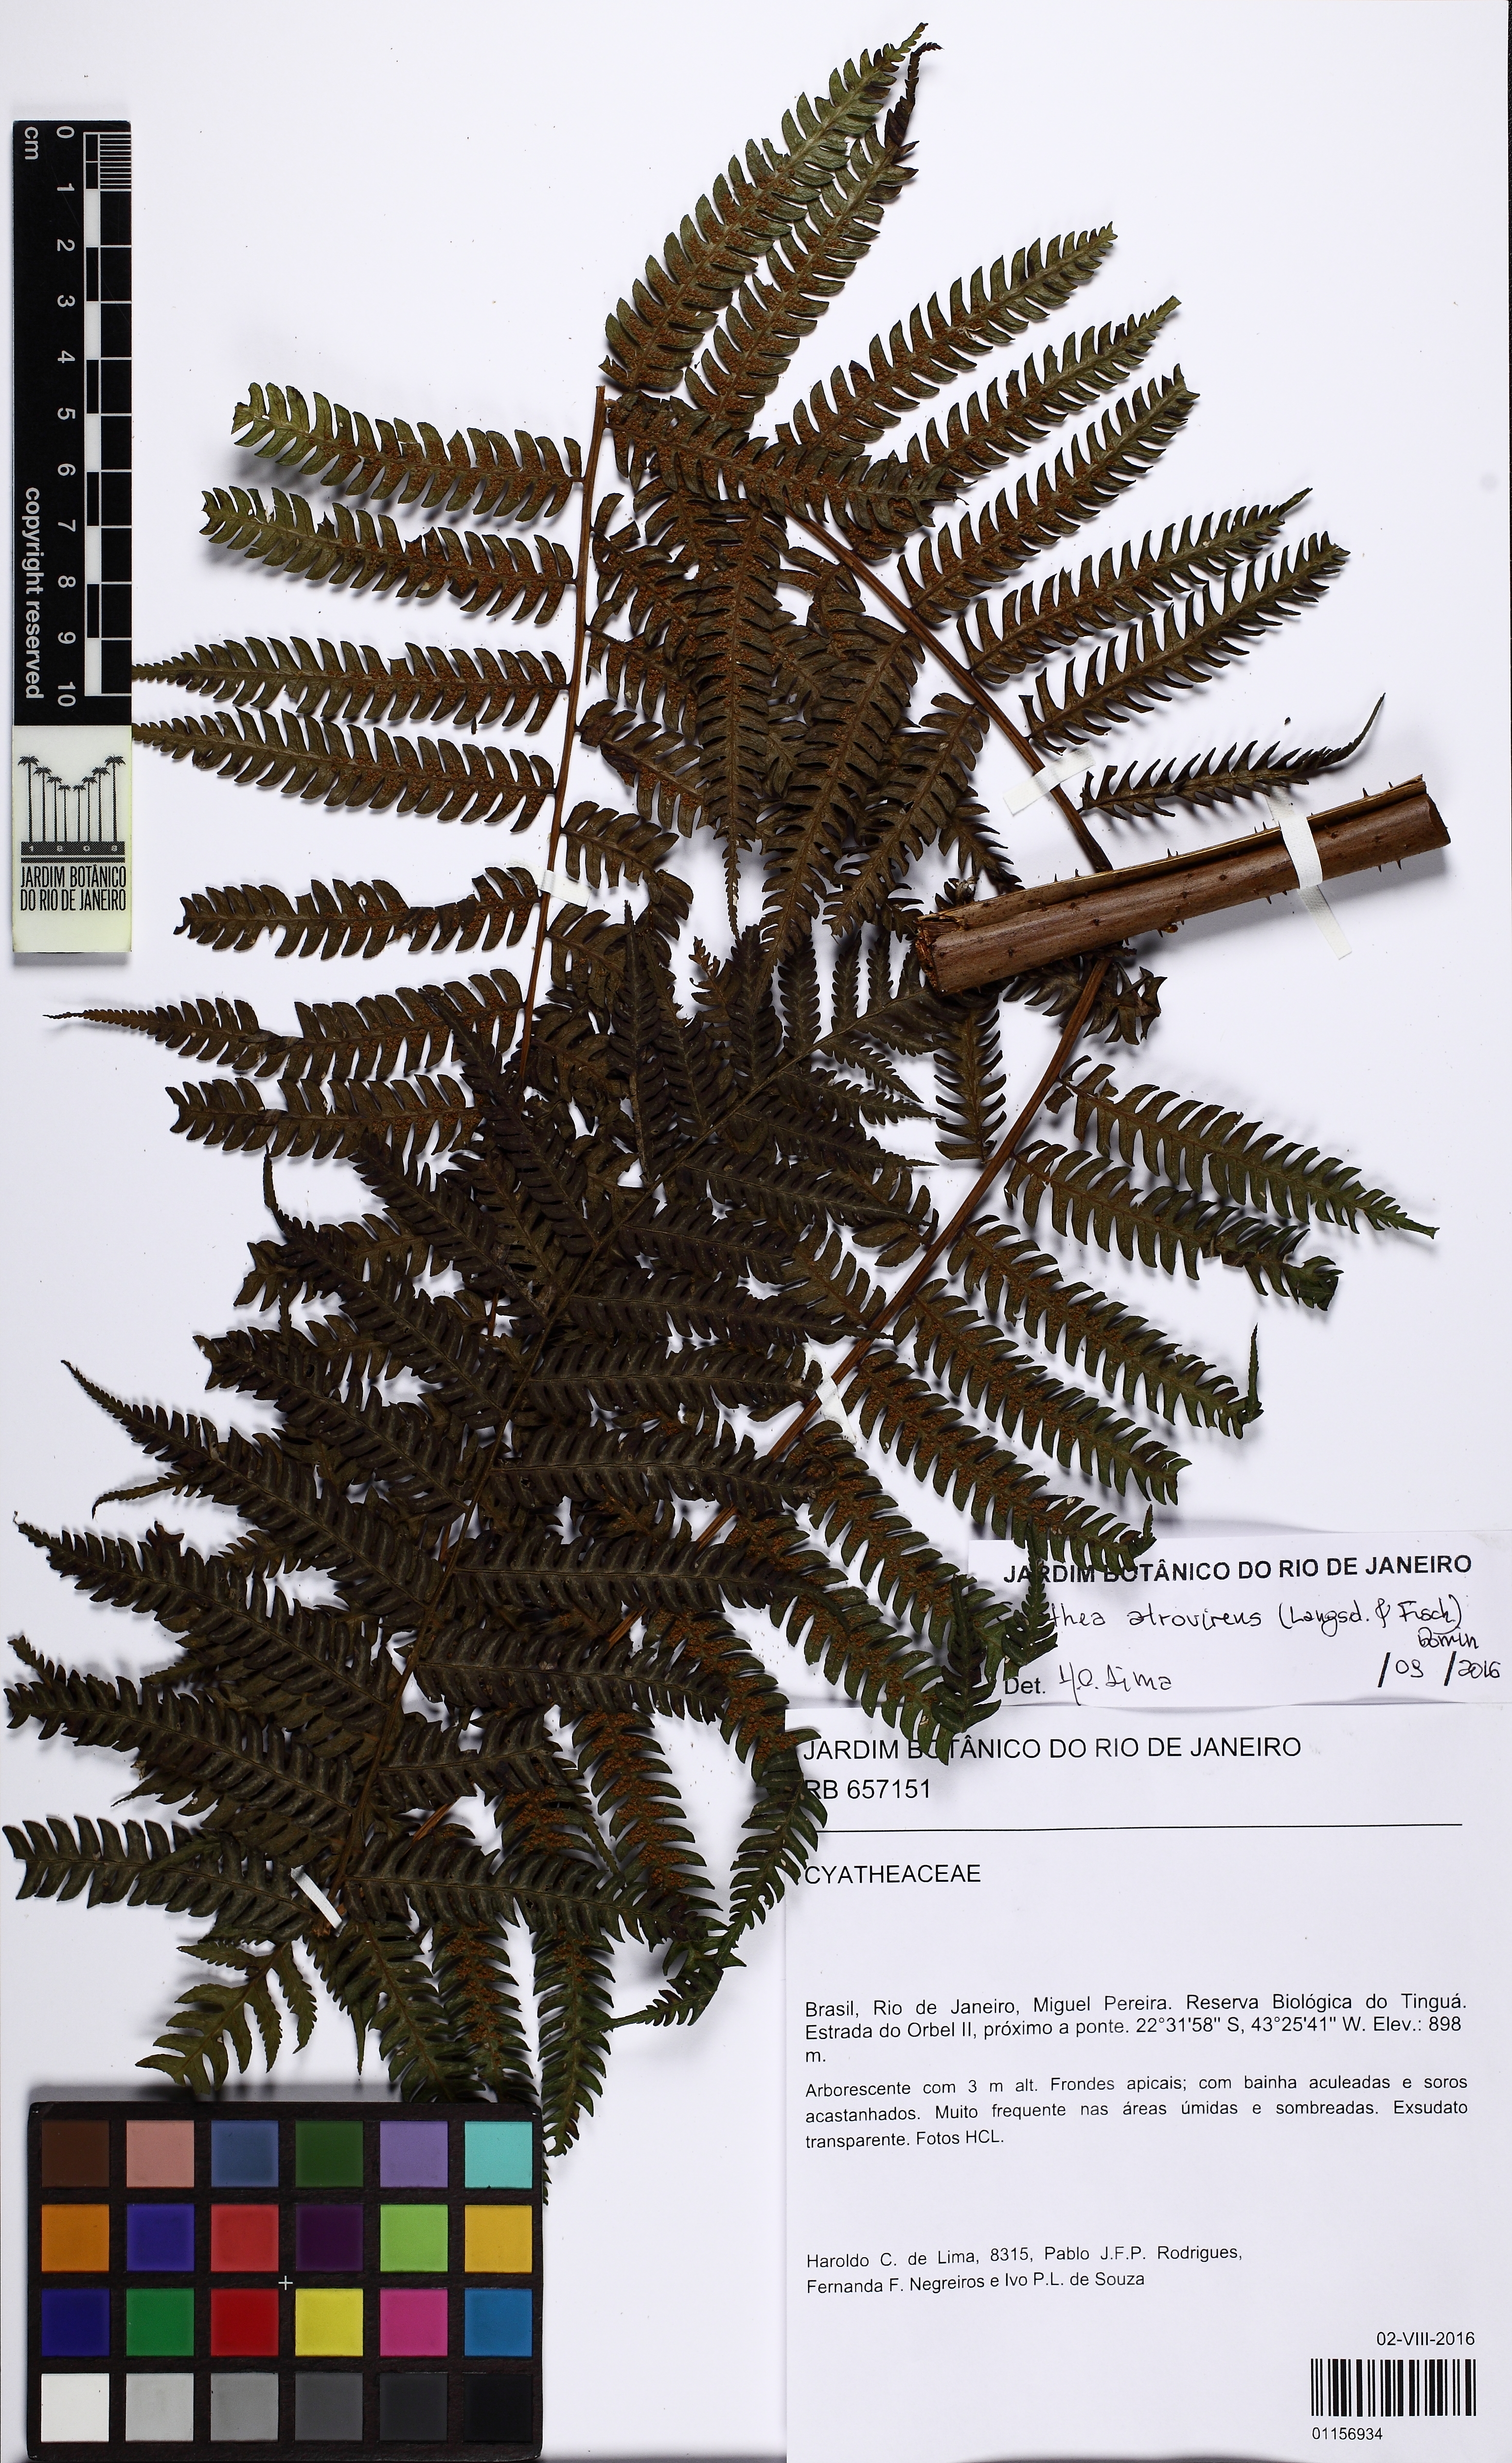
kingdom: Plantae
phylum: Tracheophyta
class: Polypodiopsida
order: Cyatheales
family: Cyatheaceae
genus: Cyathea
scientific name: Cyathea atrovirens
